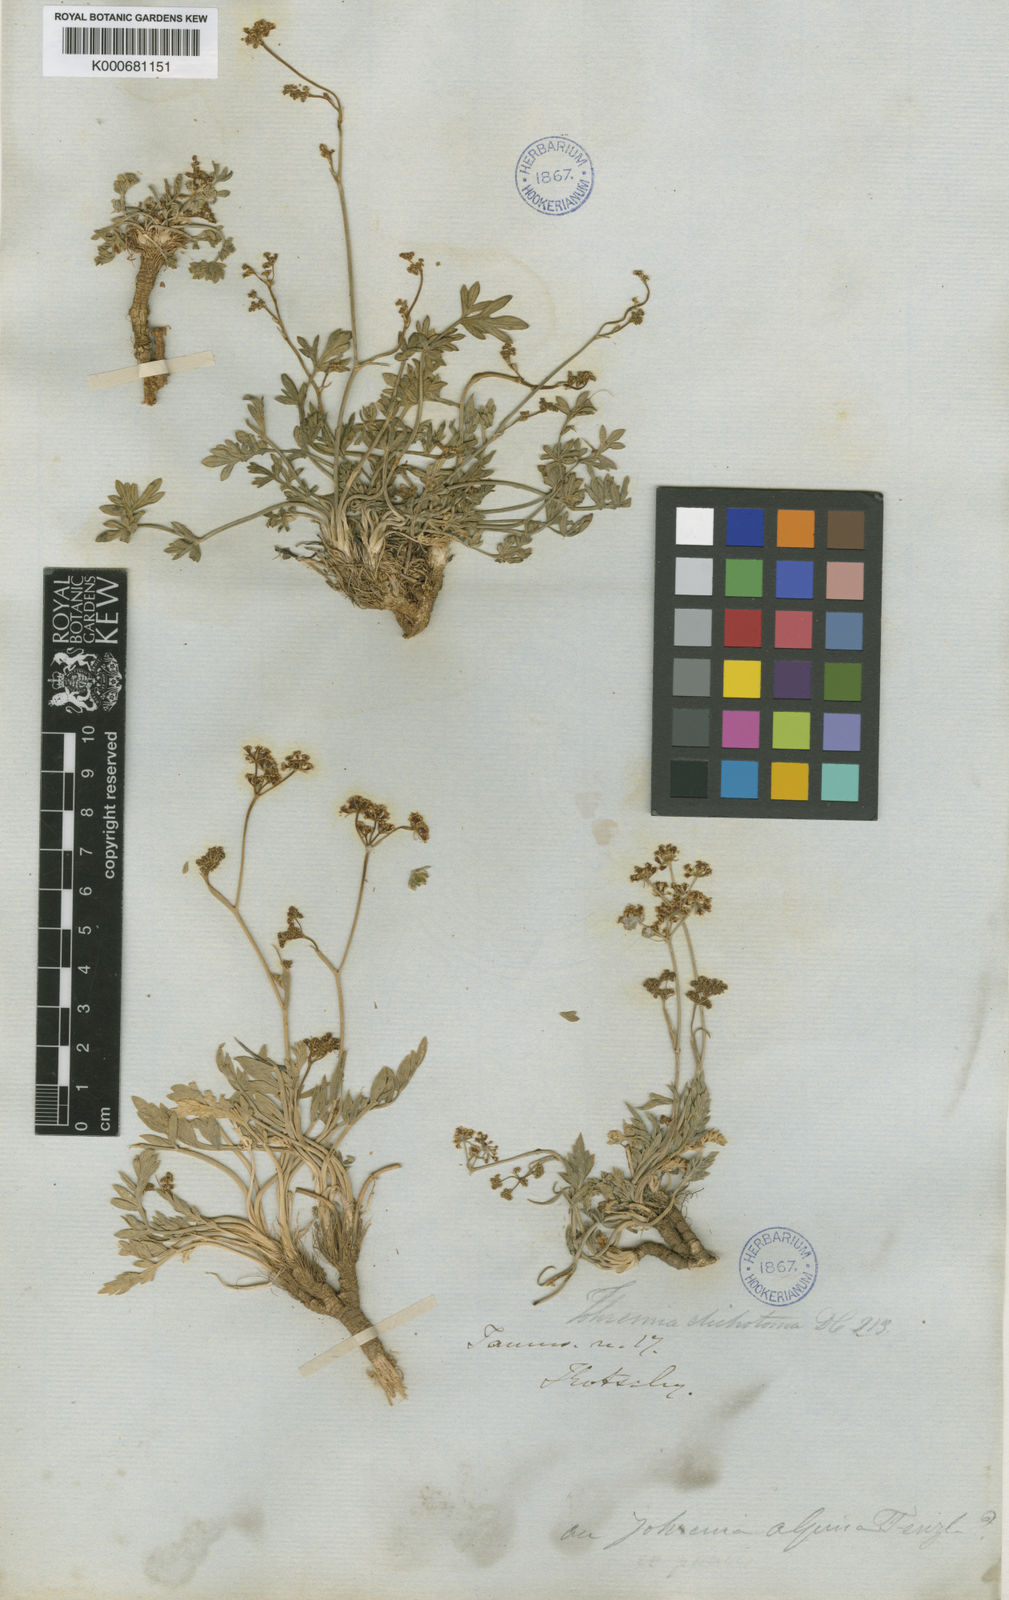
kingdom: Plantae
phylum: Tracheophyta
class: Magnoliopsida
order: Apiales
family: Apiaceae
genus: Dichoropetalum
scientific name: Dichoropetalum alpinum
